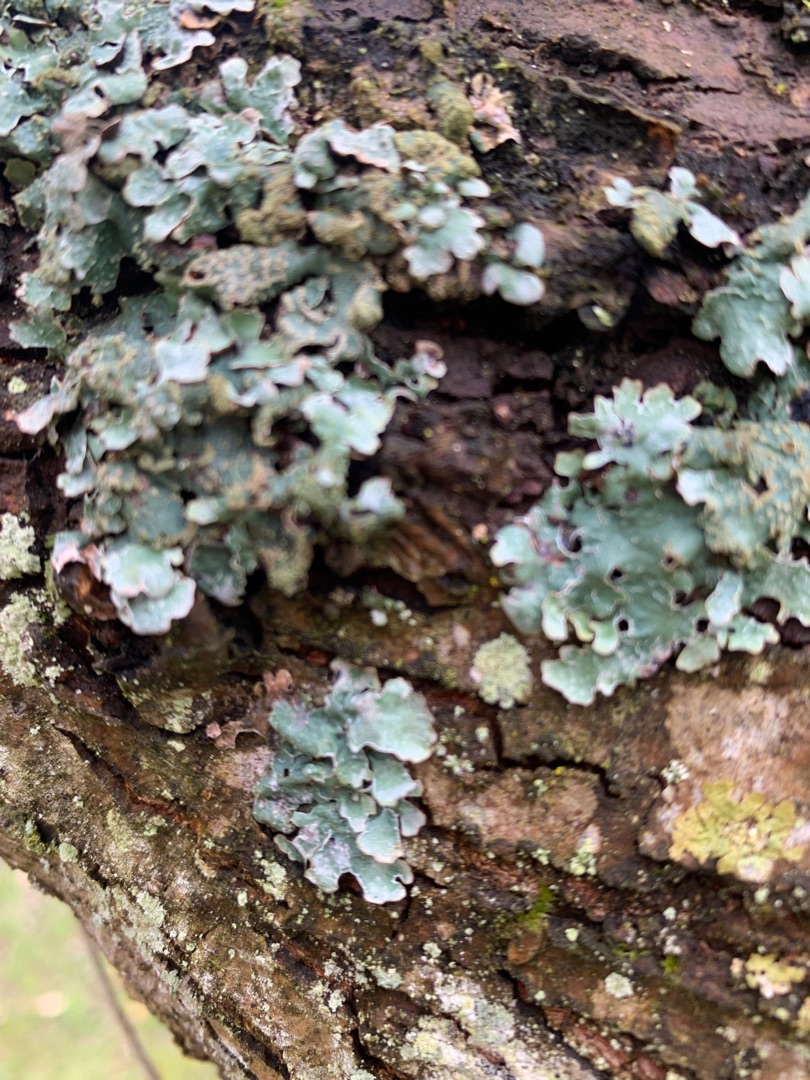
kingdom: Fungi
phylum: Ascomycota
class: Lecanoromycetes
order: Lecanorales
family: Parmeliaceae
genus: Parmelia
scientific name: Parmelia sulcata
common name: Rynket skållav
